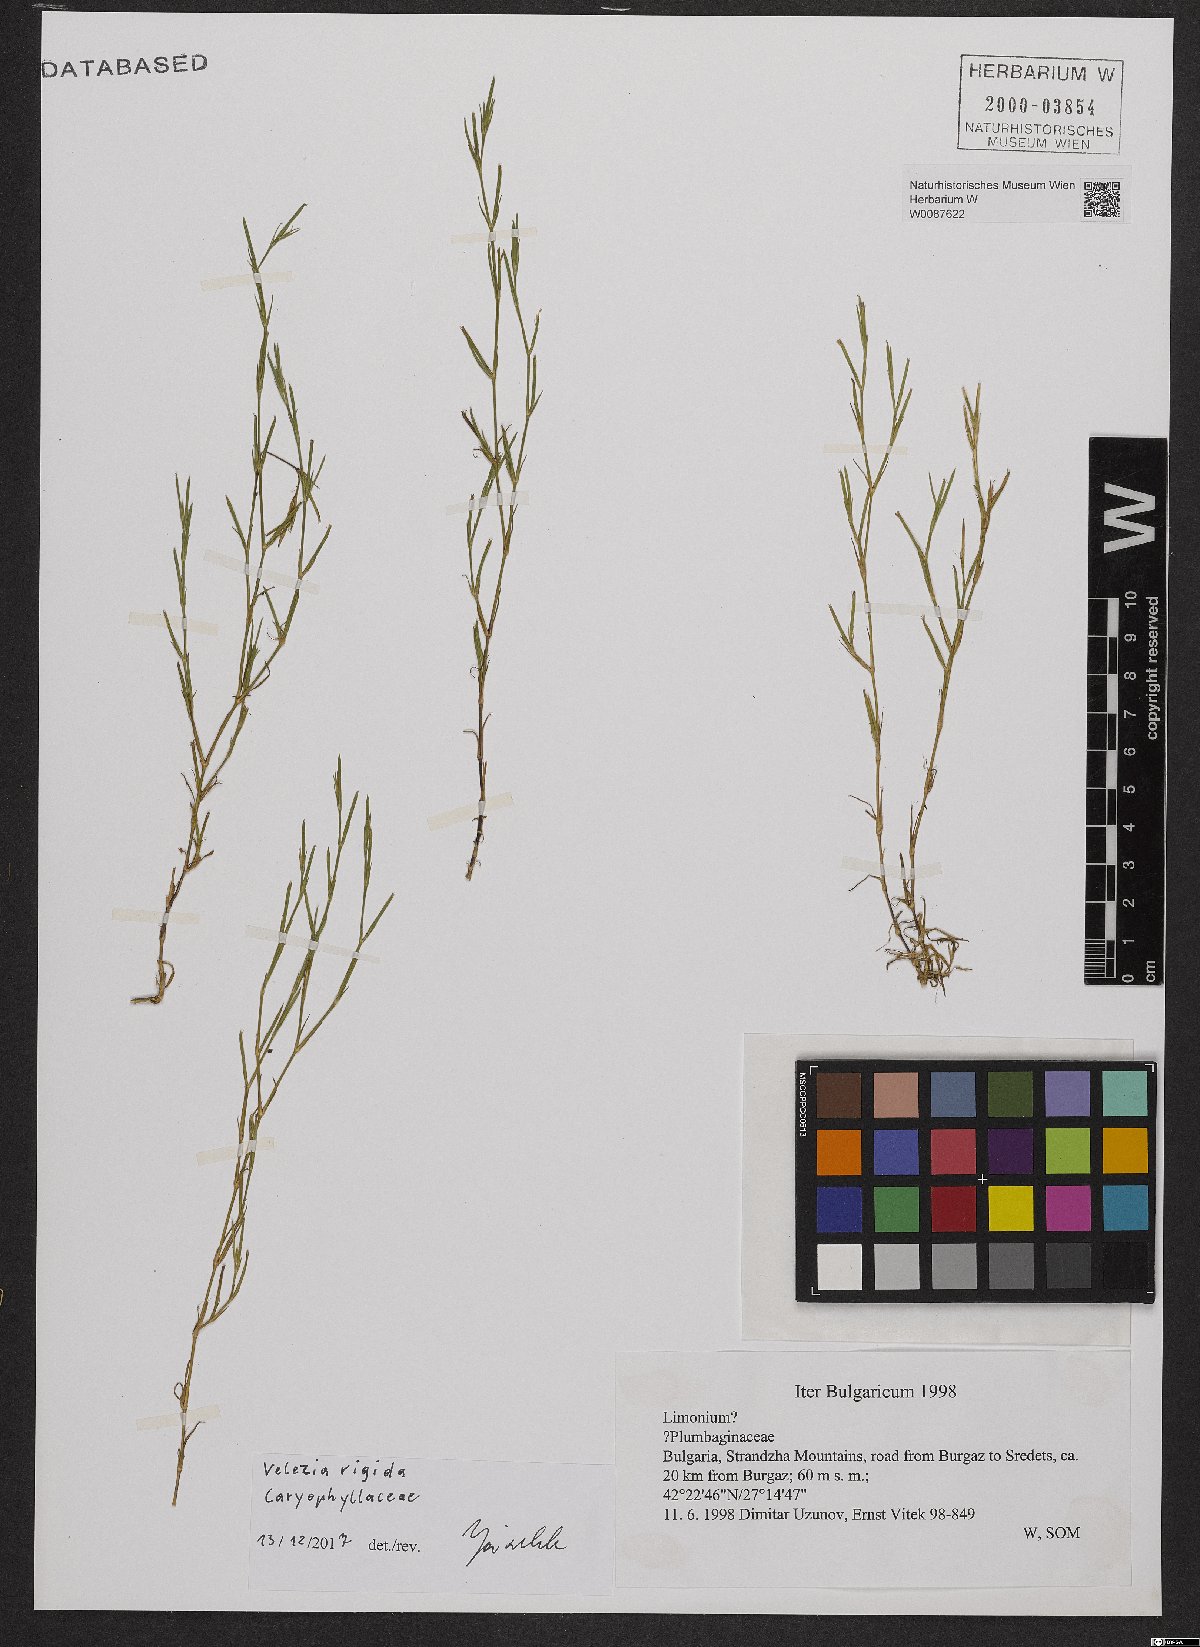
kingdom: Plantae
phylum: Tracheophyta
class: Magnoliopsida
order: Caryophyllales
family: Caryophyllaceae
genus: Dianthus
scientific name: Dianthus nudiflorus
